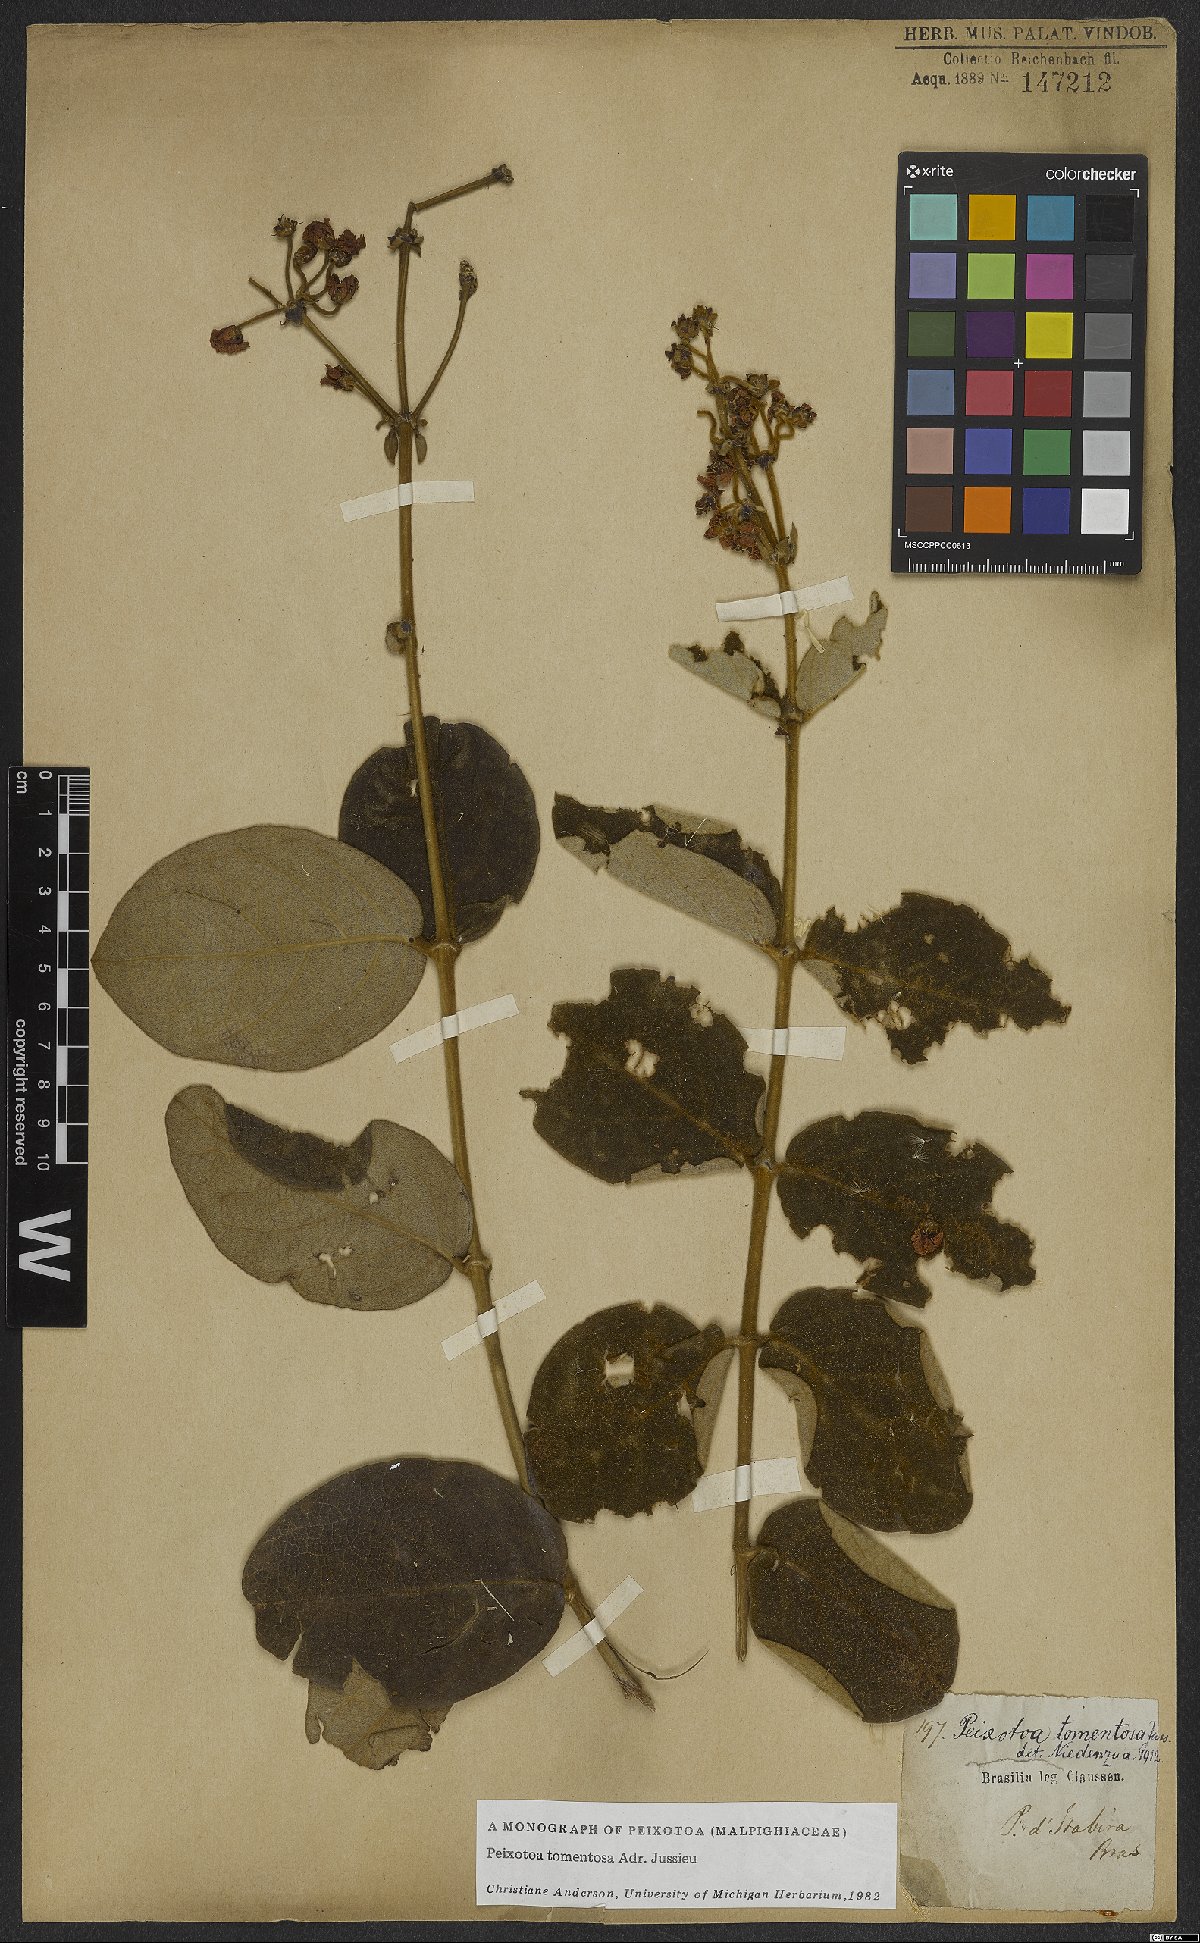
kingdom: Plantae
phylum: Tracheophyta
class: Magnoliopsida
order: Malpighiales
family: Malpighiaceae
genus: Peixotoa
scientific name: Peixotoa tomentosa
